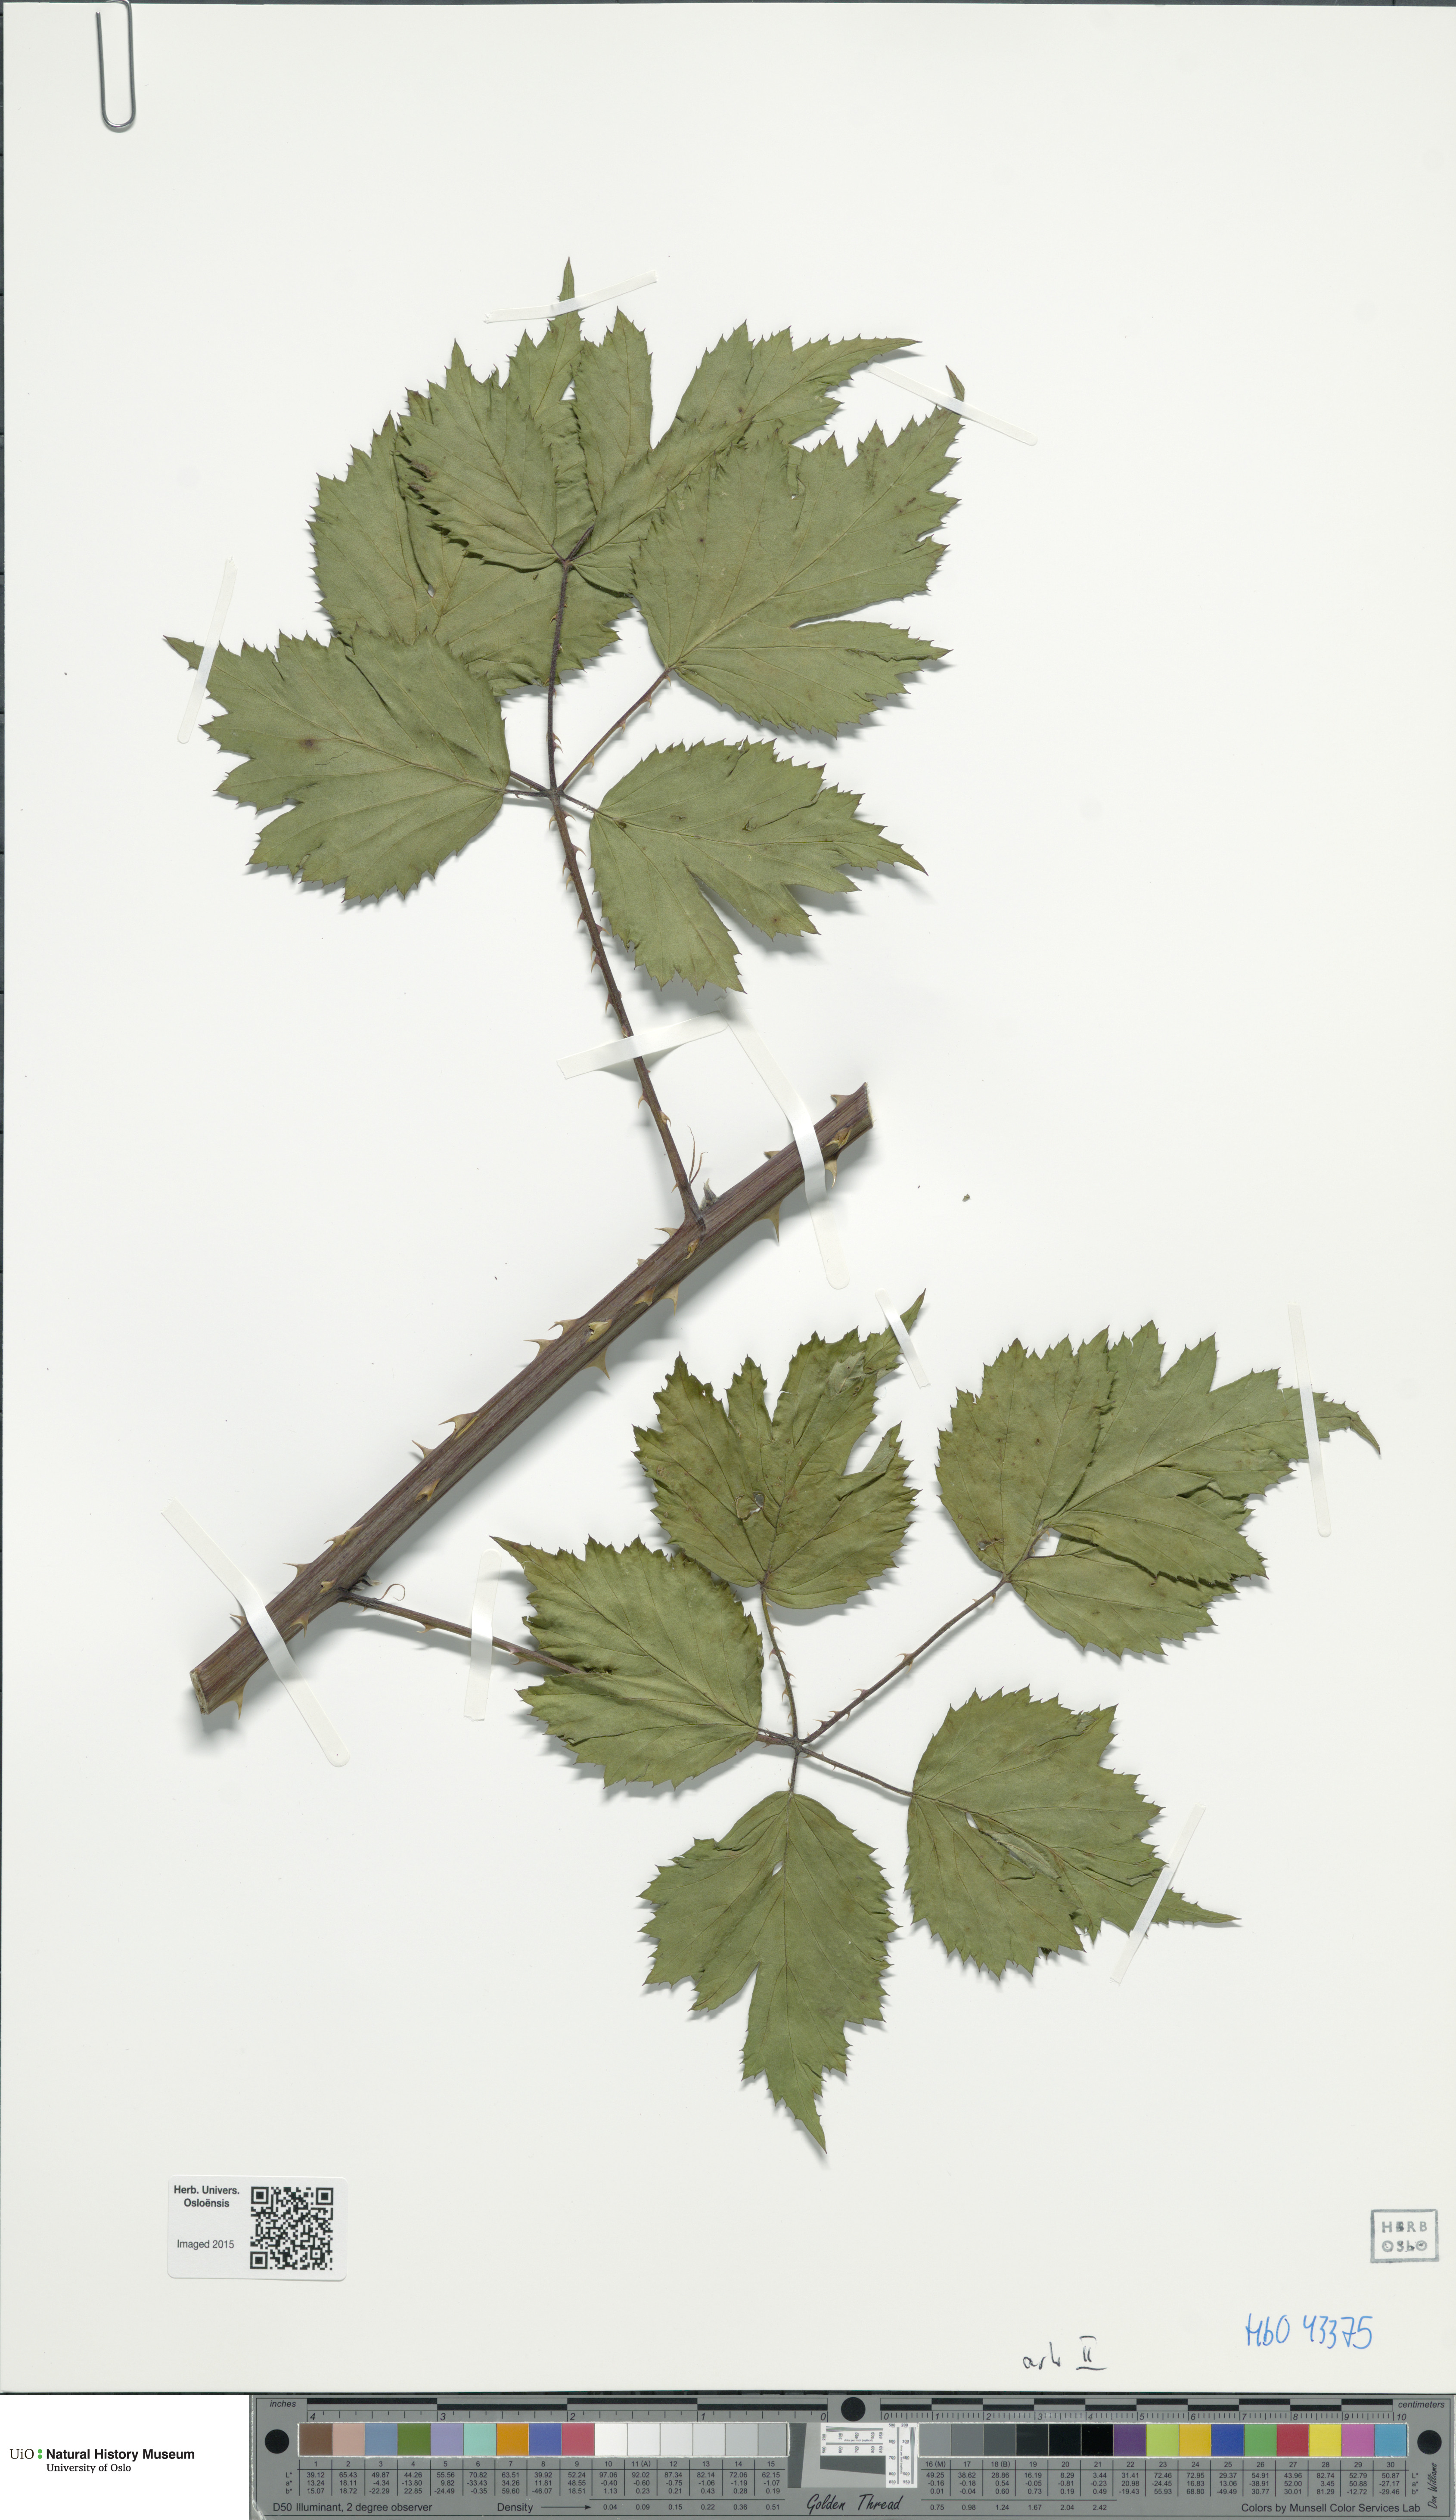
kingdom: Plantae
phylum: Tracheophyta
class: Magnoliopsida
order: Rosales
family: Rosaceae
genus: Rubus
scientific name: Rubus laciniatus
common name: Evergreen blackberry
